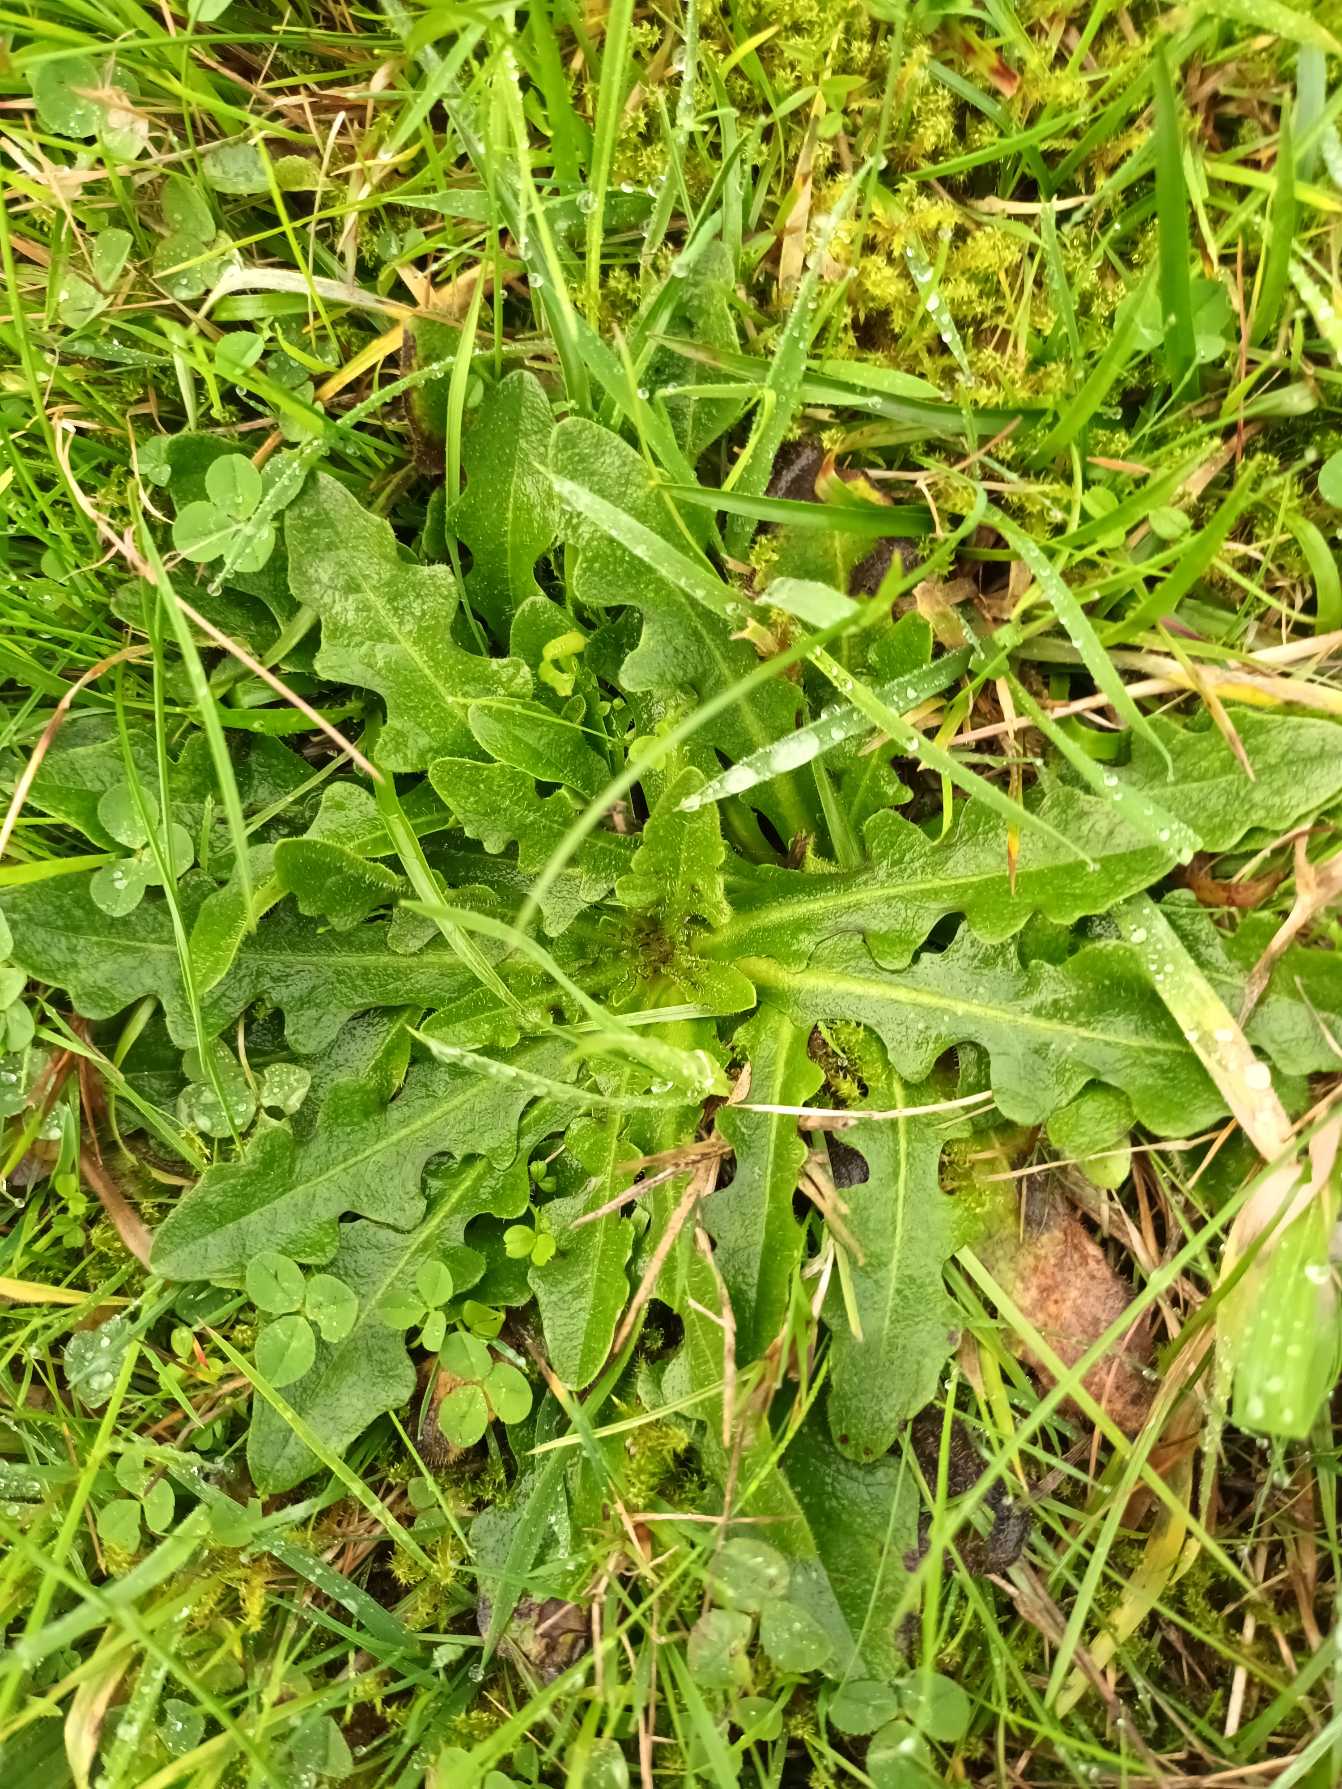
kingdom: Plantae
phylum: Tracheophyta
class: Magnoliopsida
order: Asterales
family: Asteraceae
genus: Hypochaeris
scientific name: Hypochaeris radicata
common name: Almindelig kongepen
